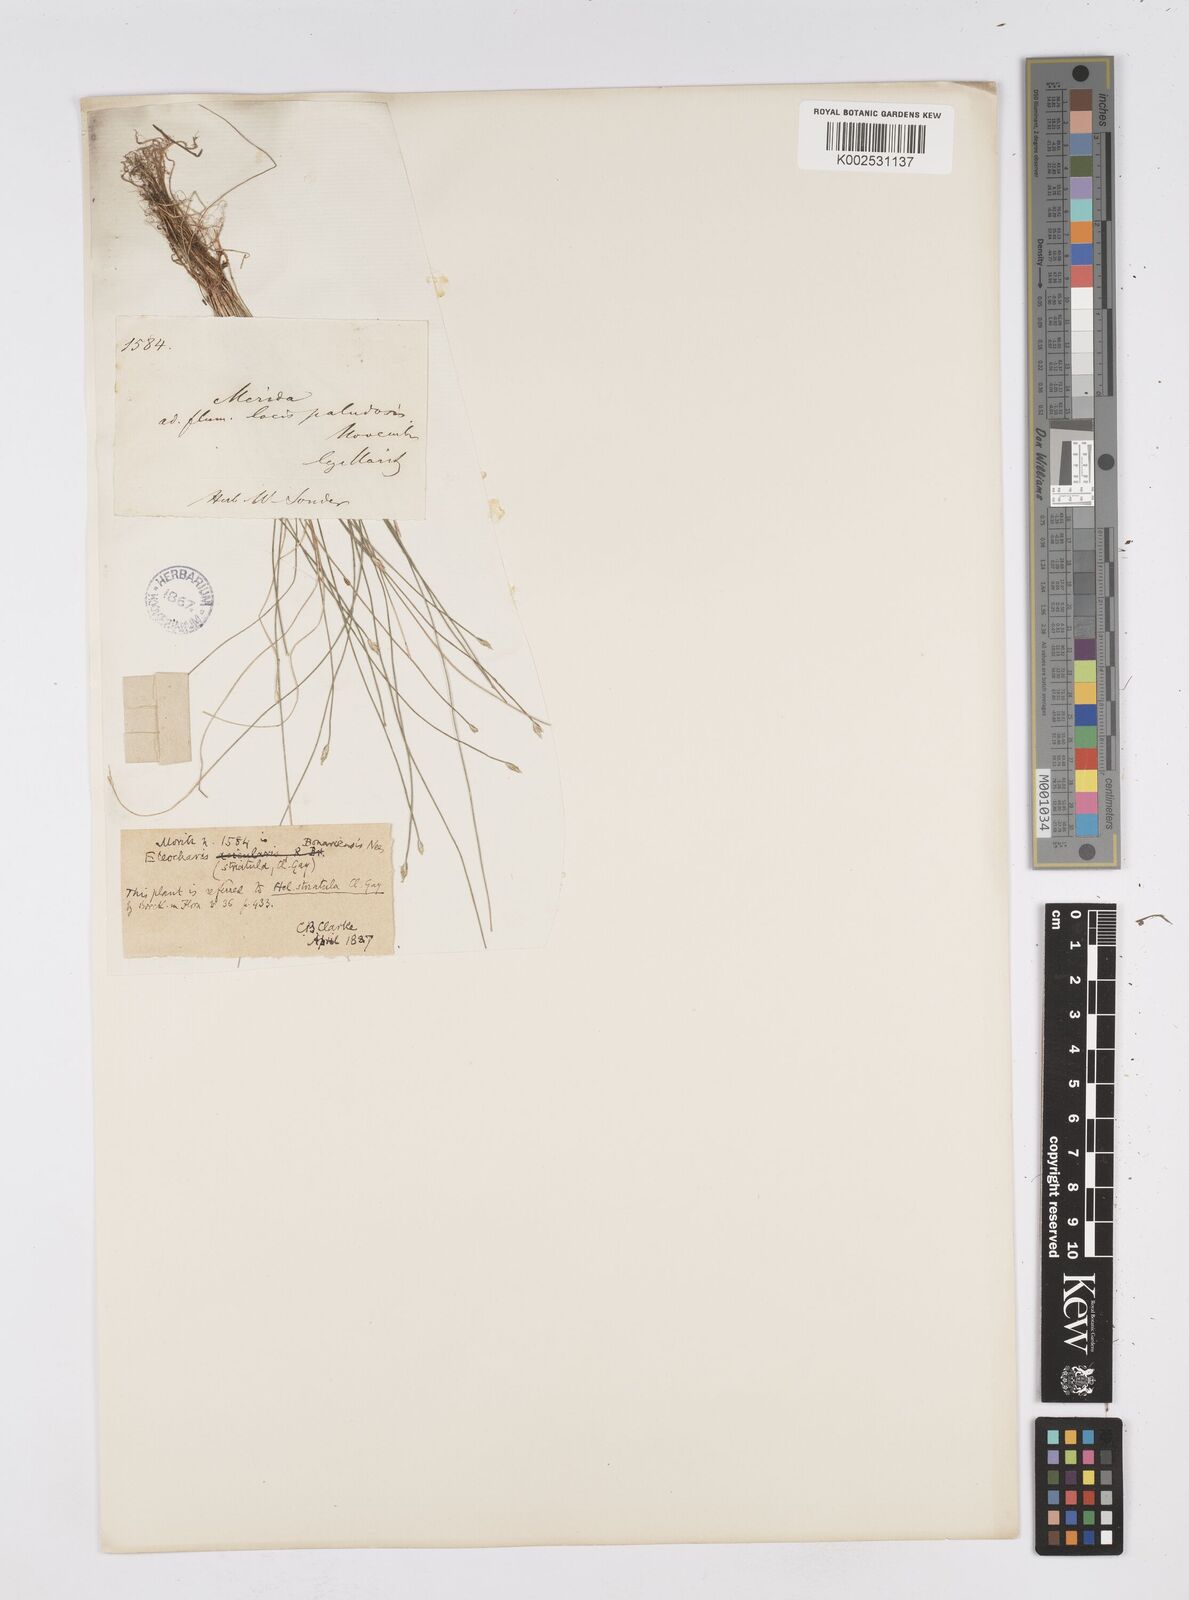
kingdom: Plantae
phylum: Tracheophyta
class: Liliopsida
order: Poales
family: Cyperaceae
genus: Eleocharis
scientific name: Eleocharis bonariensis
